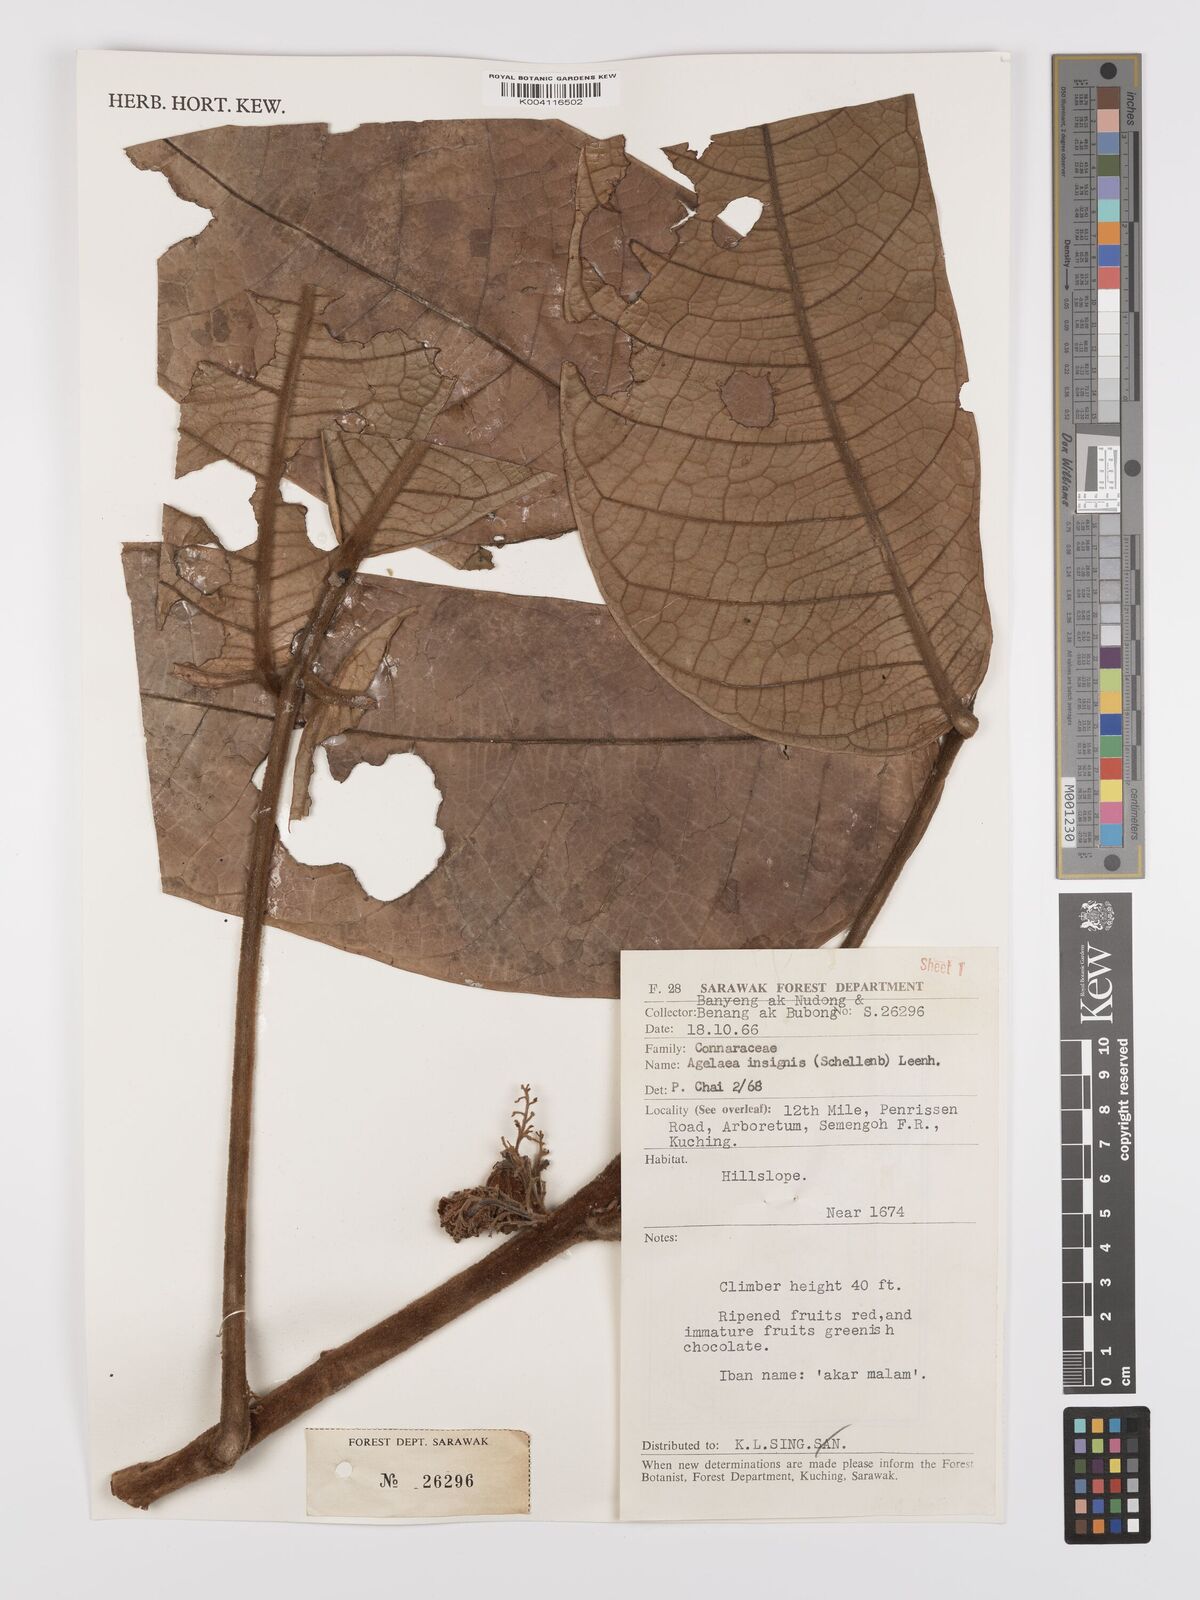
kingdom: Plantae
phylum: Tracheophyta
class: Magnoliopsida
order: Oxalidales
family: Connaraceae
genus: Agelaea
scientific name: Agelaea insignis
